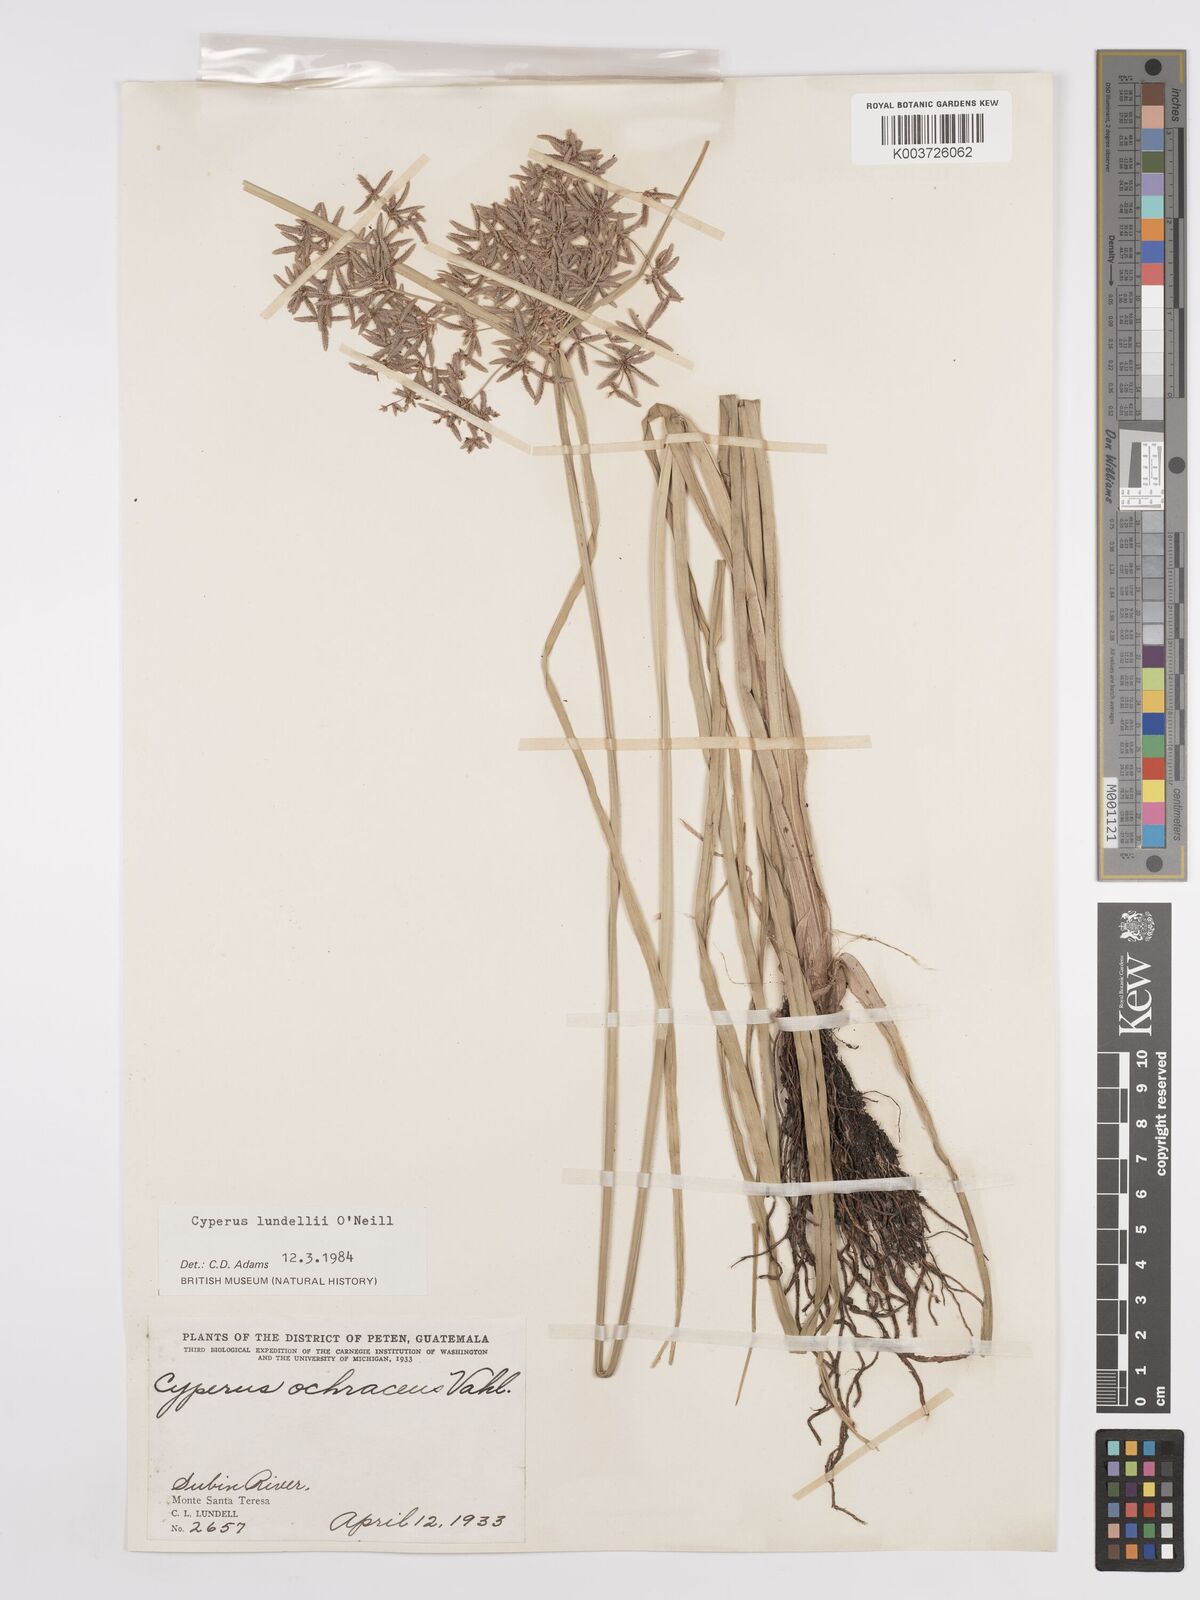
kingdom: Plantae
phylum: Tracheophyta
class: Liliopsida
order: Poales
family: Cyperaceae
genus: Cyperus
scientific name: Cyperus lundellii
